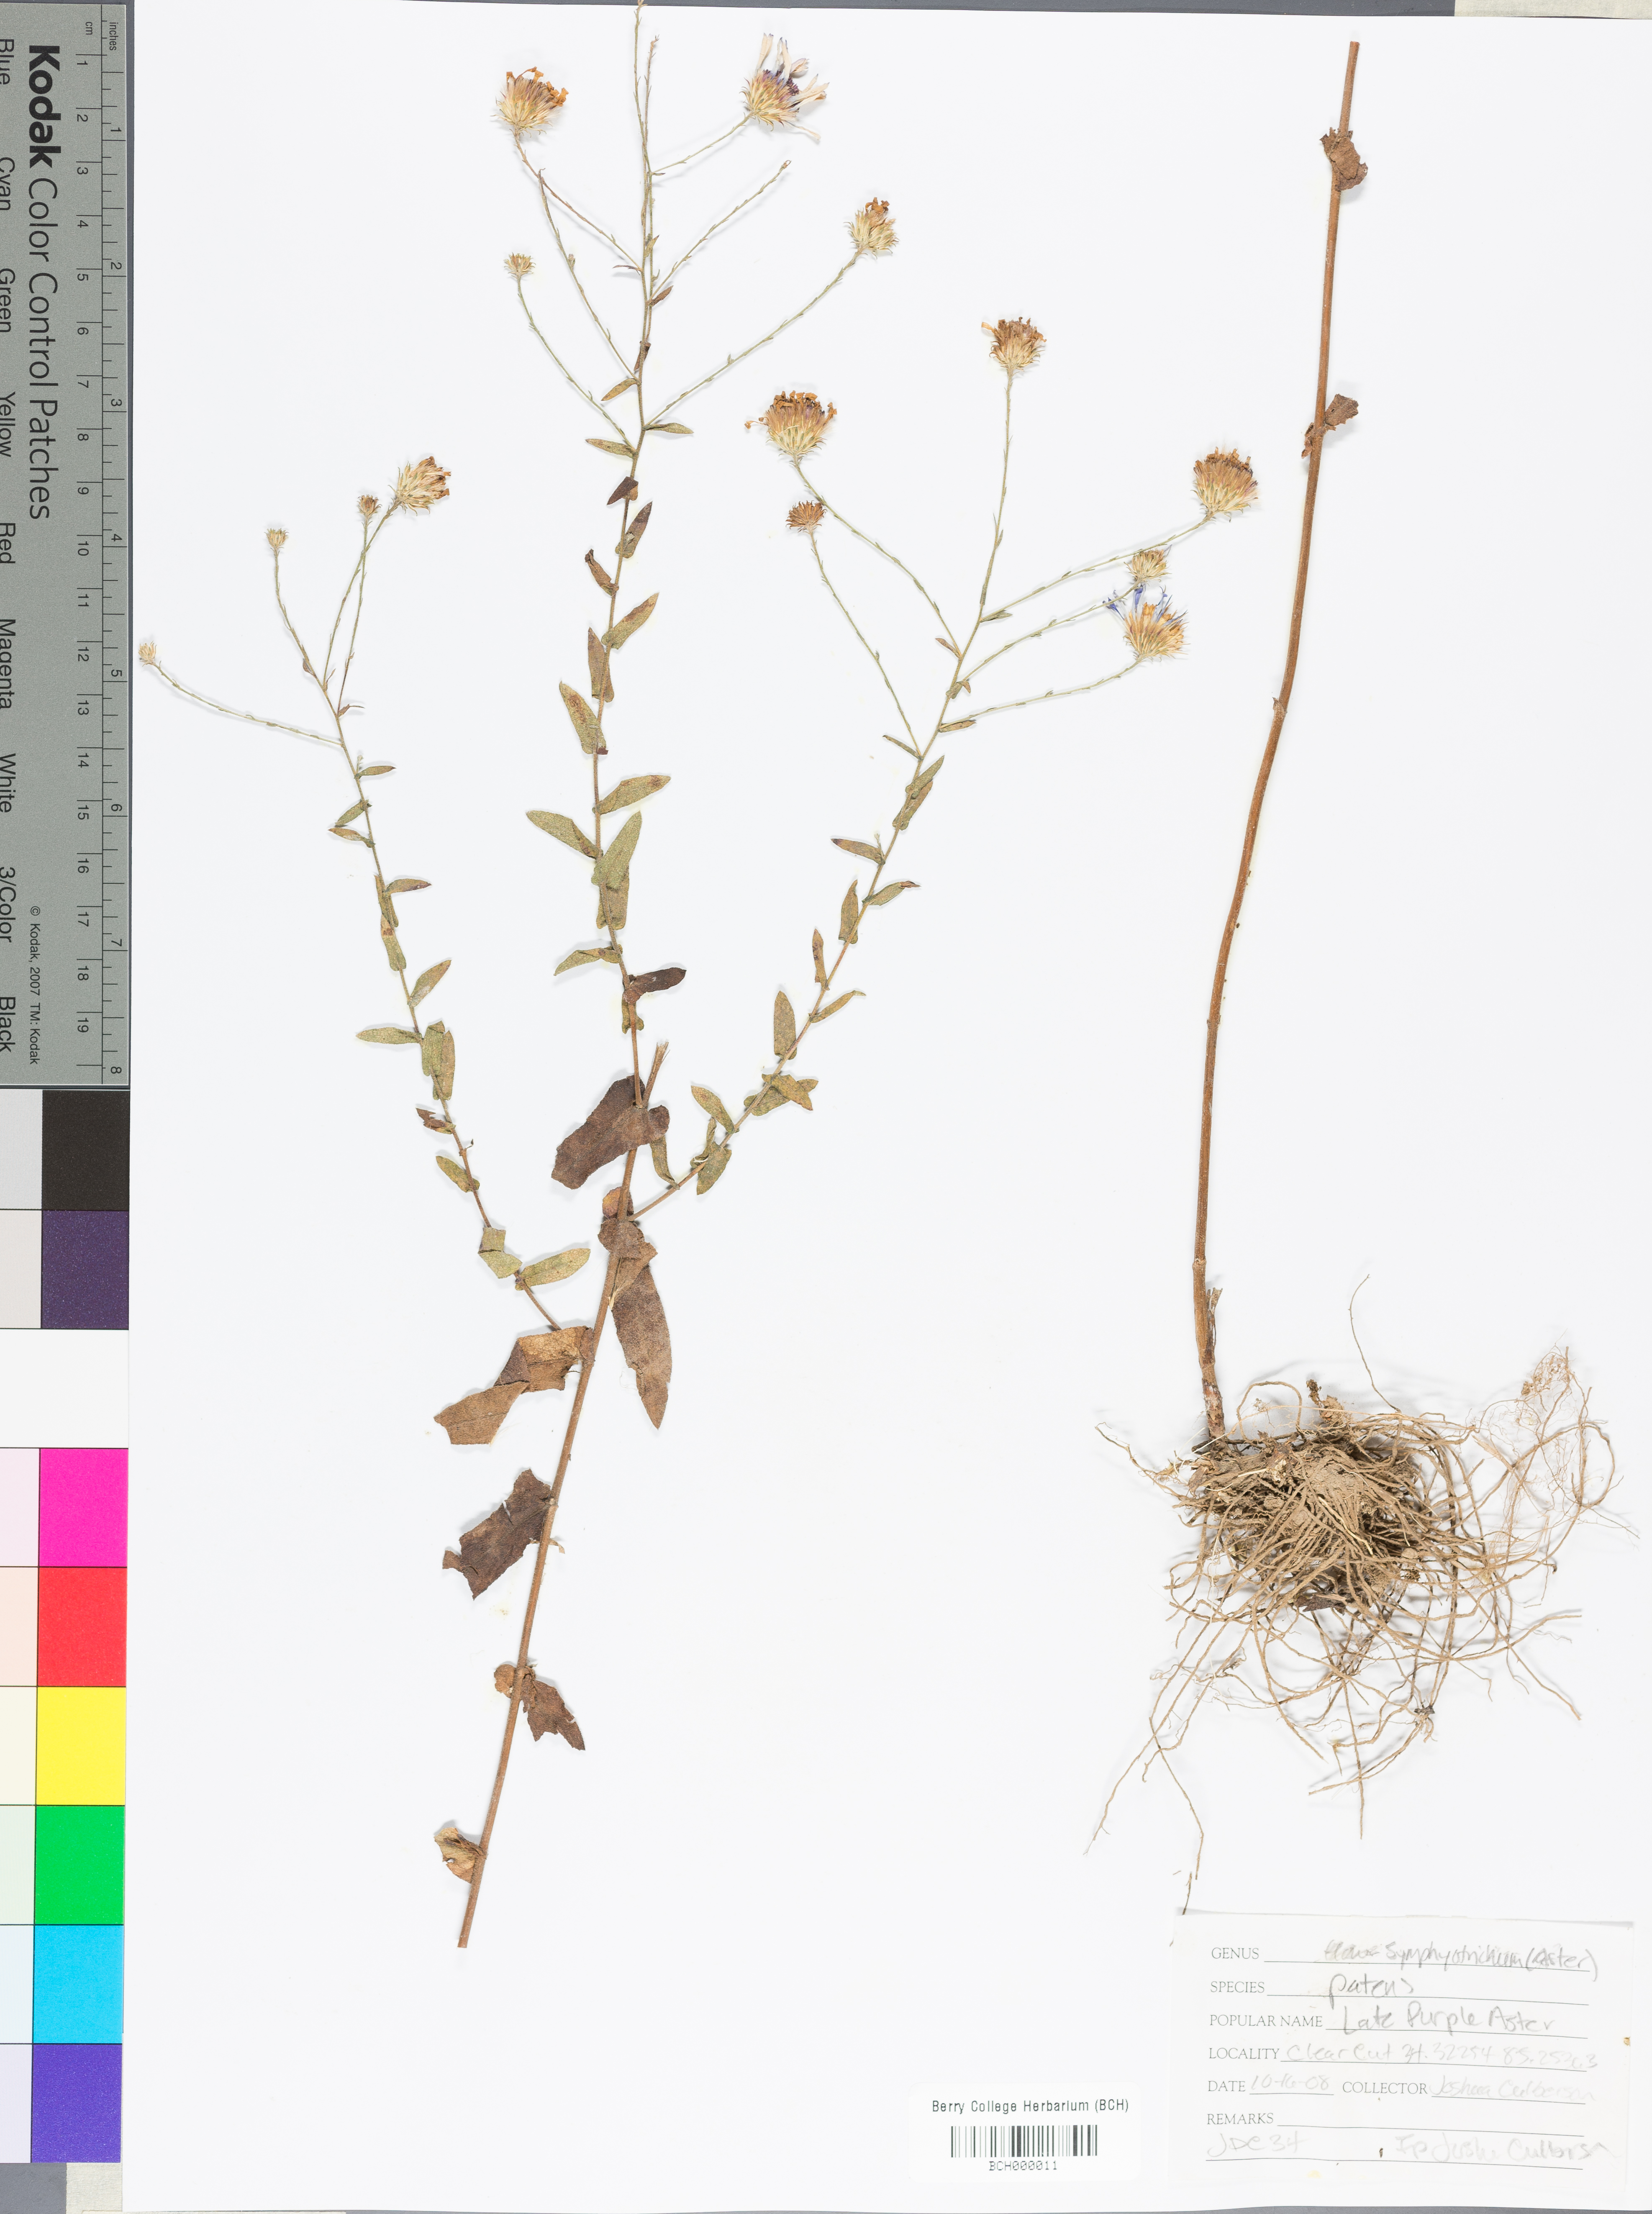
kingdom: Plantae
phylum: Tracheophyta
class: Magnoliopsida
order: Asterales
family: Asteraceae
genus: Symphyotrichum
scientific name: Symphyotrichum patens
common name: Late purple aster
